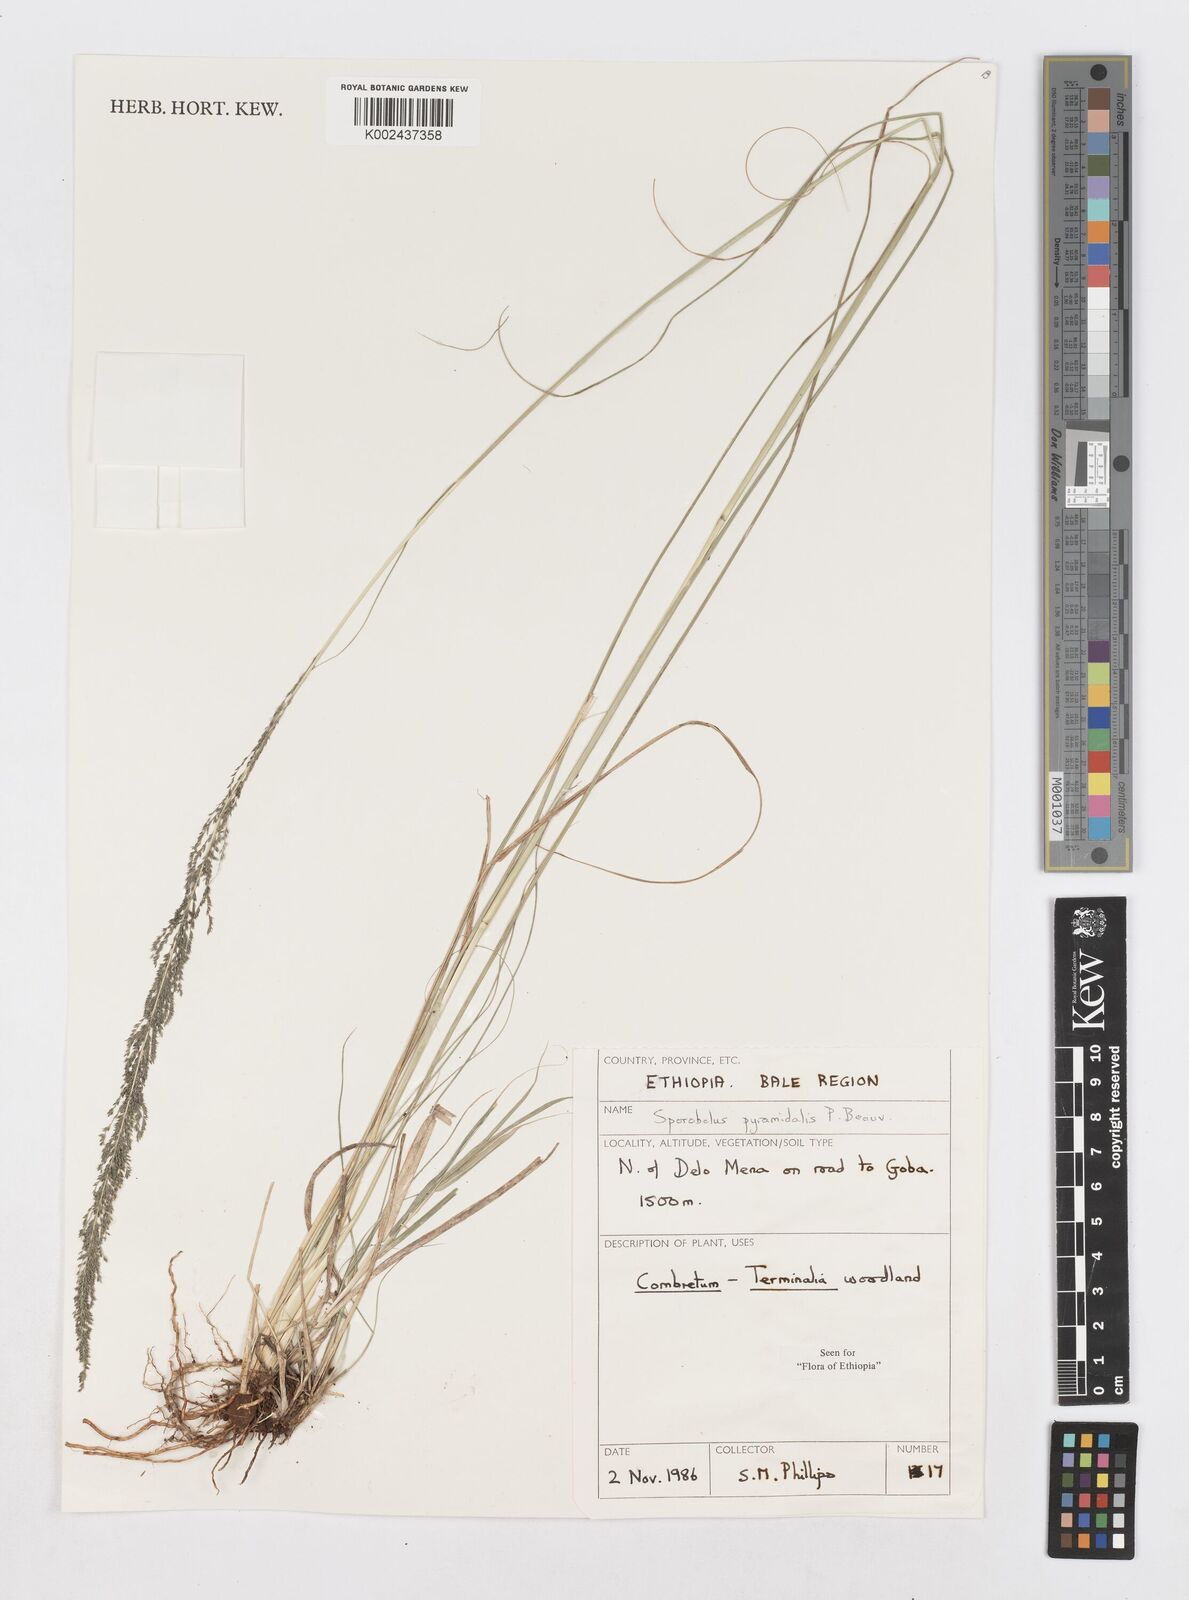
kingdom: Plantae
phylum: Tracheophyta
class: Liliopsida
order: Poales
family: Poaceae
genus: Sporobolus
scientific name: Sporobolus pyramidalis
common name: West indian dropseed
